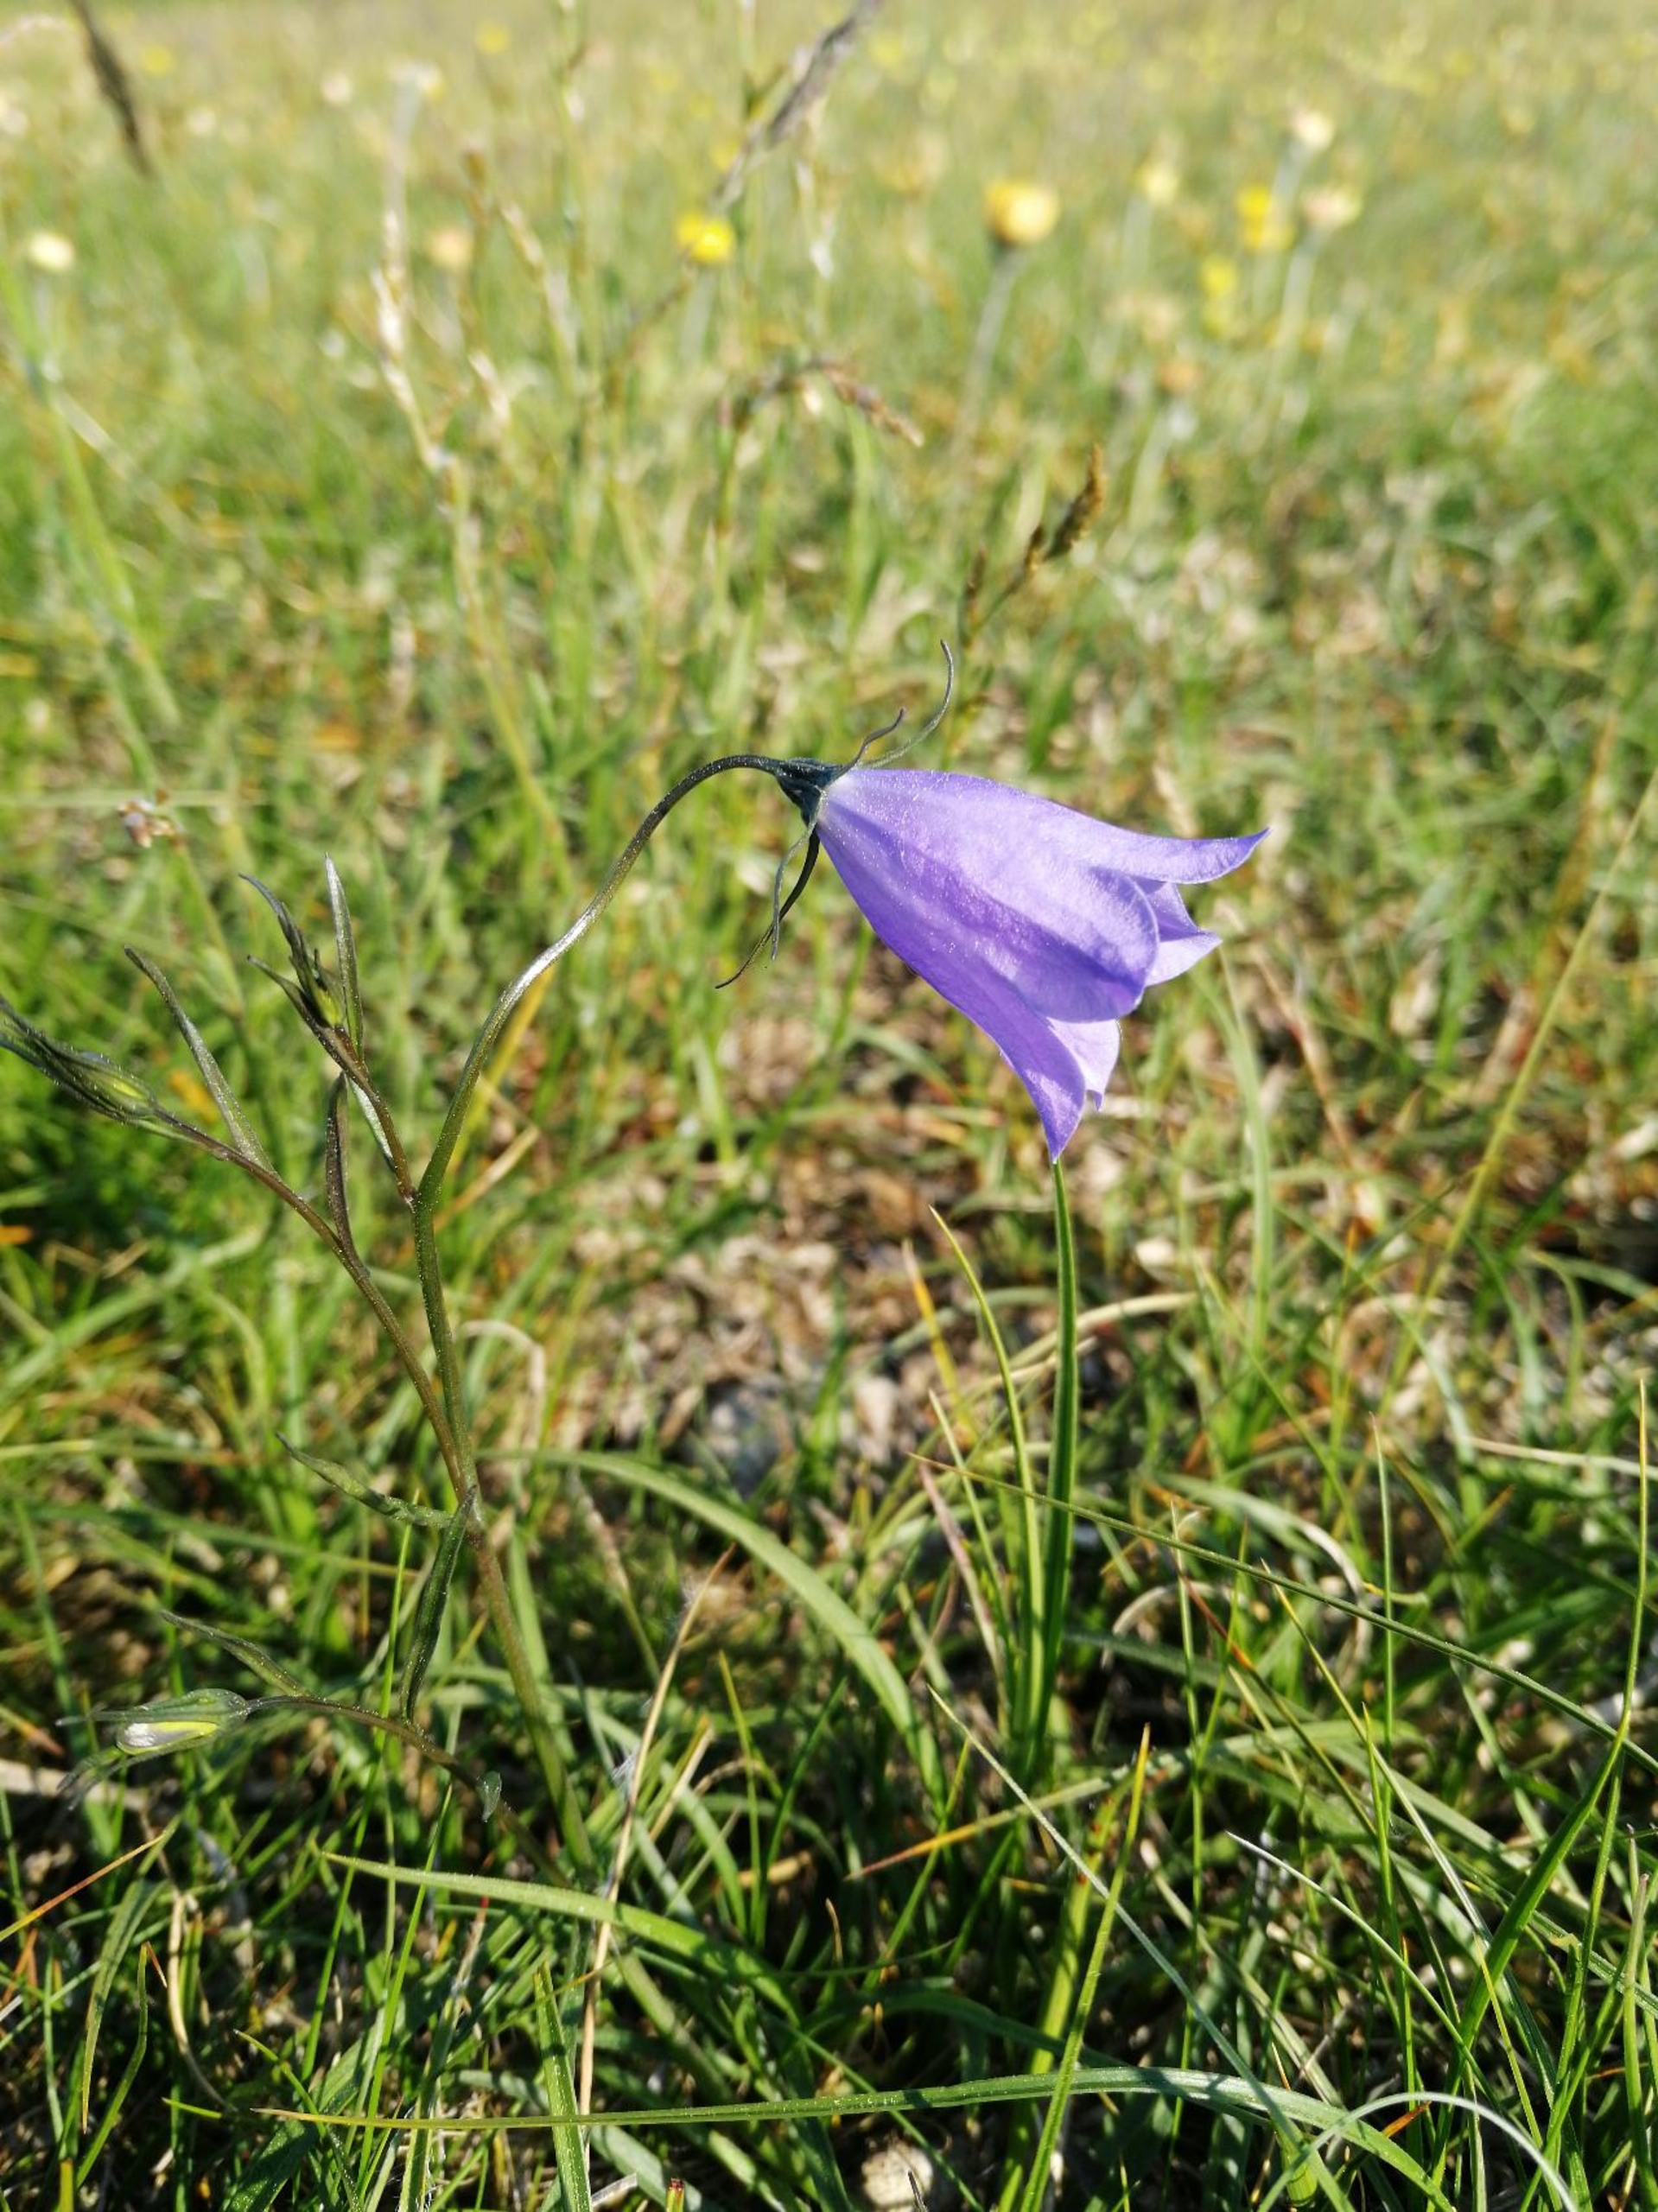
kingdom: Plantae
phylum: Tracheophyta
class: Magnoliopsida
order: Asterales
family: Campanulaceae
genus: Campanula
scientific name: Campanula rotundifolia
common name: Liden klokke
